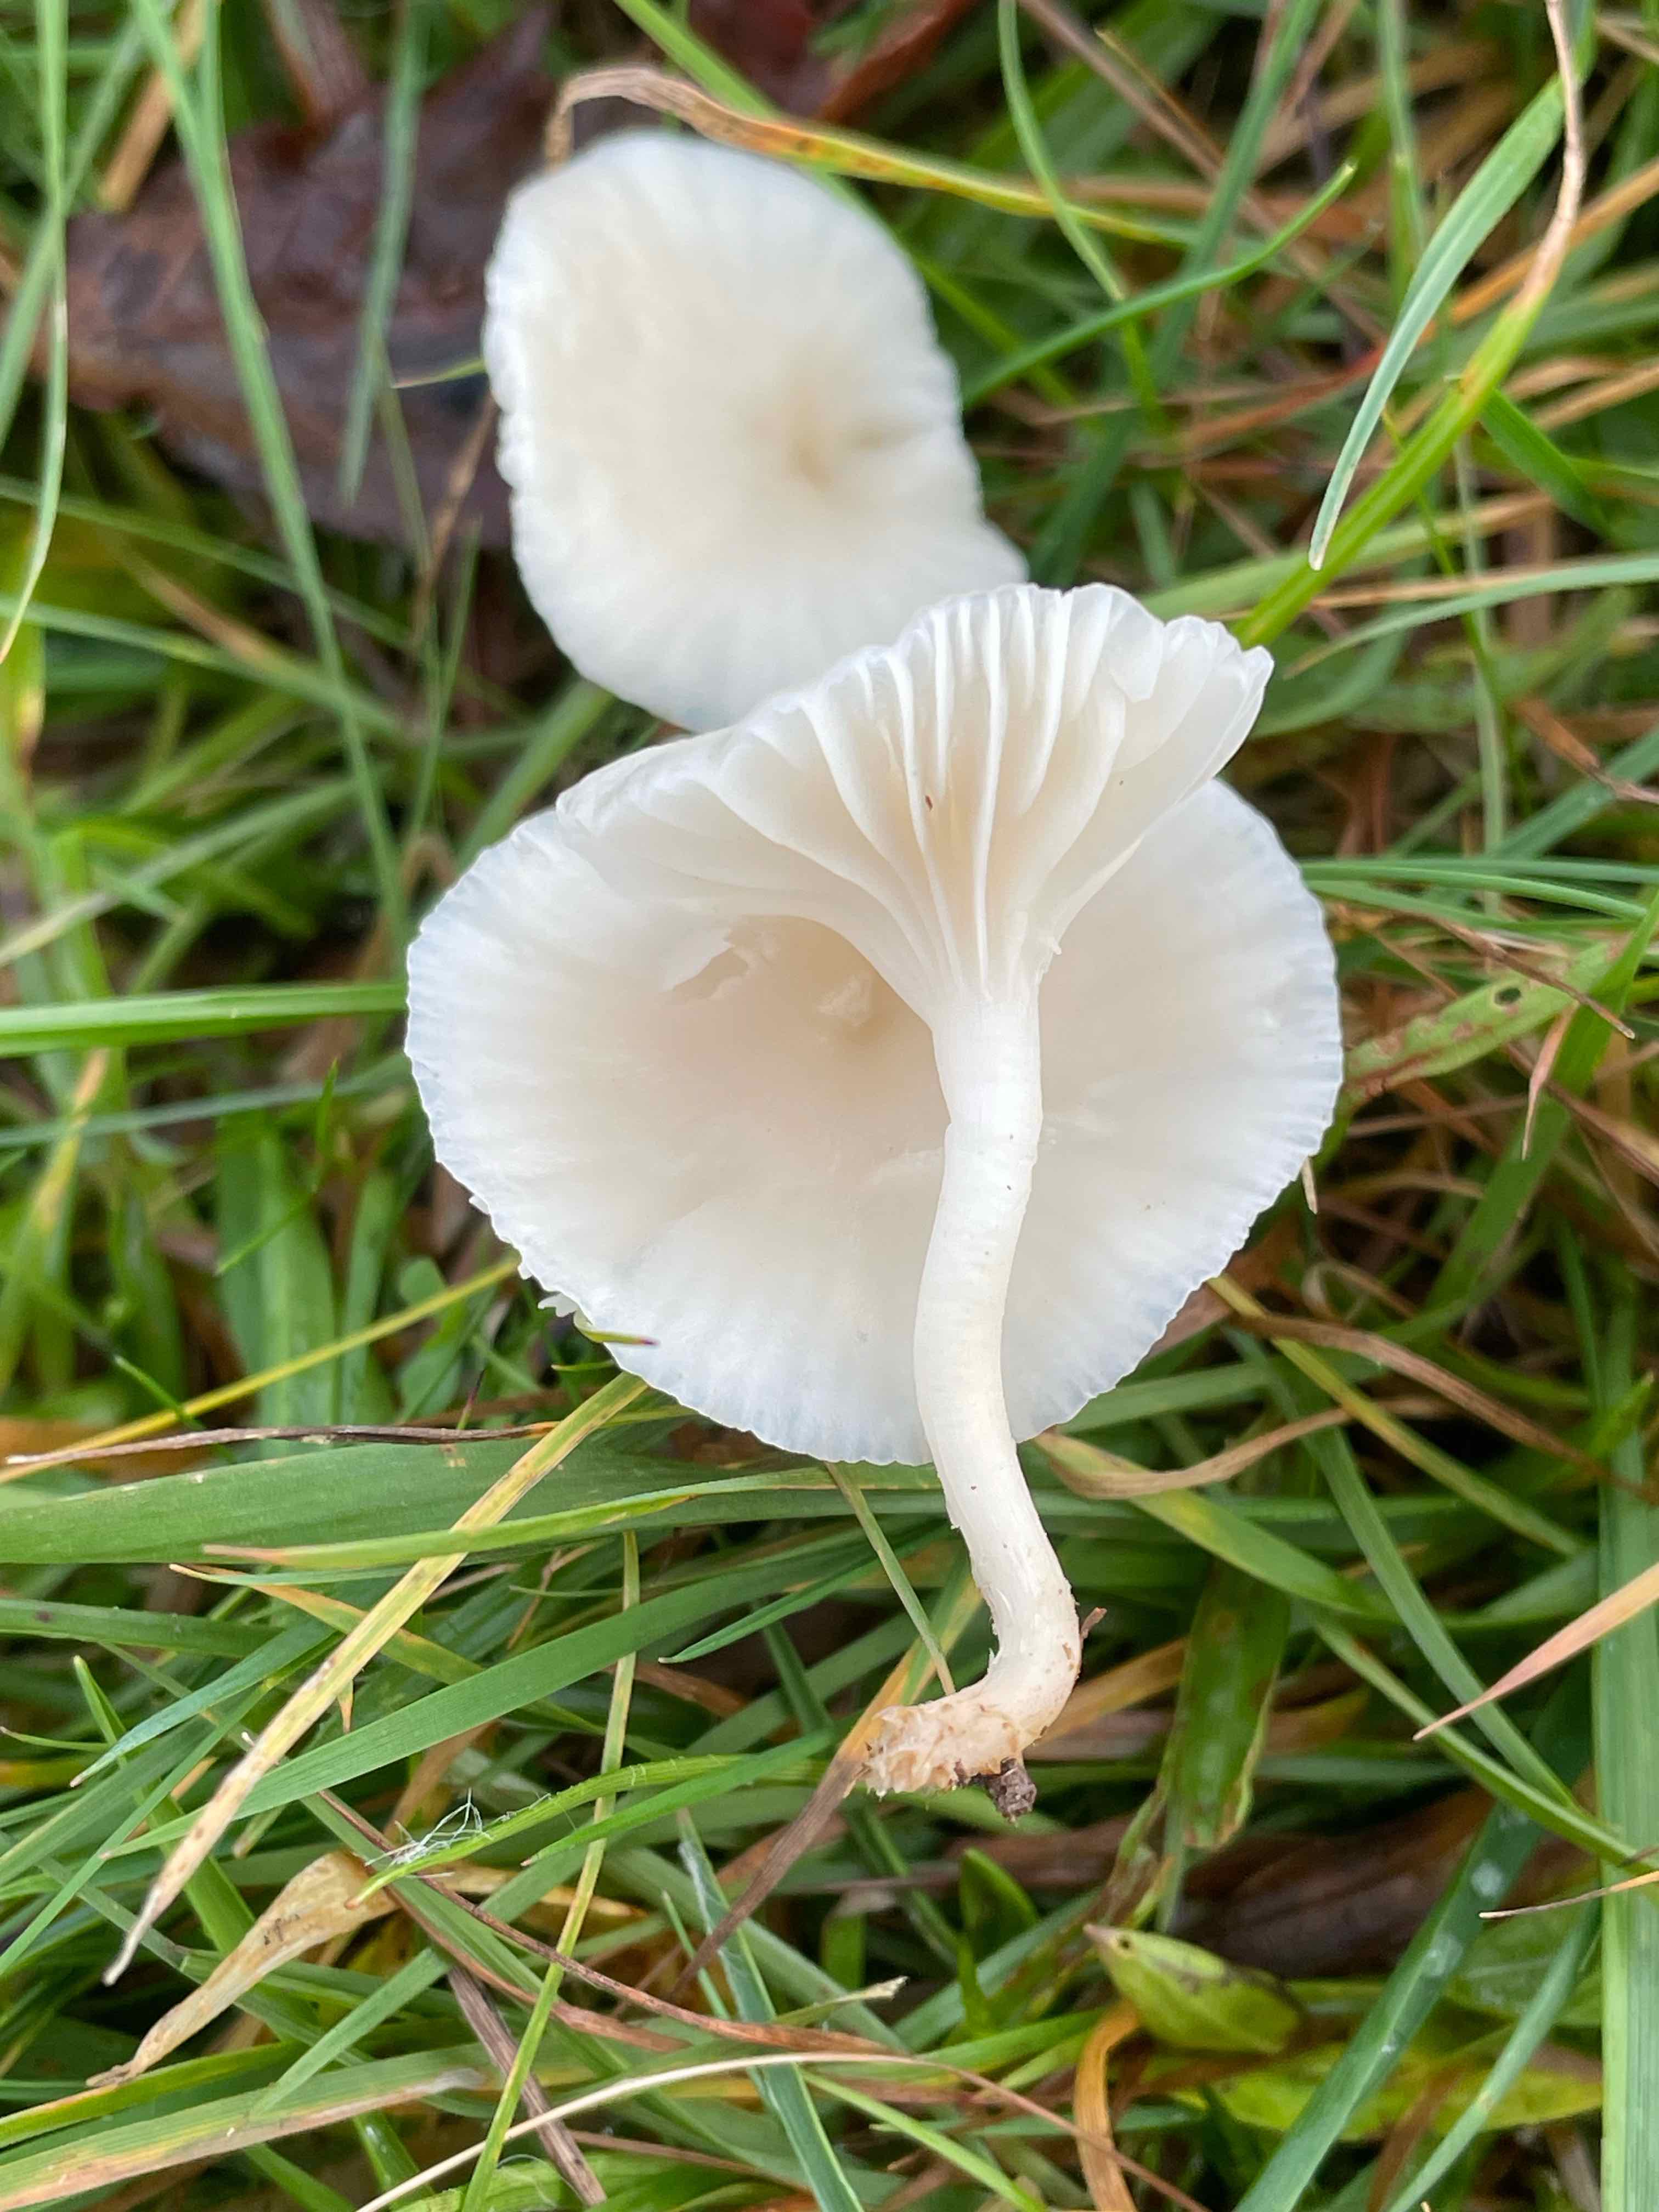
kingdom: Fungi
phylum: Basidiomycota
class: Agaricomycetes
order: Agaricales
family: Hygrophoraceae
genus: Cuphophyllus
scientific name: Cuphophyllus virgineus
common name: snehvid vokshat
